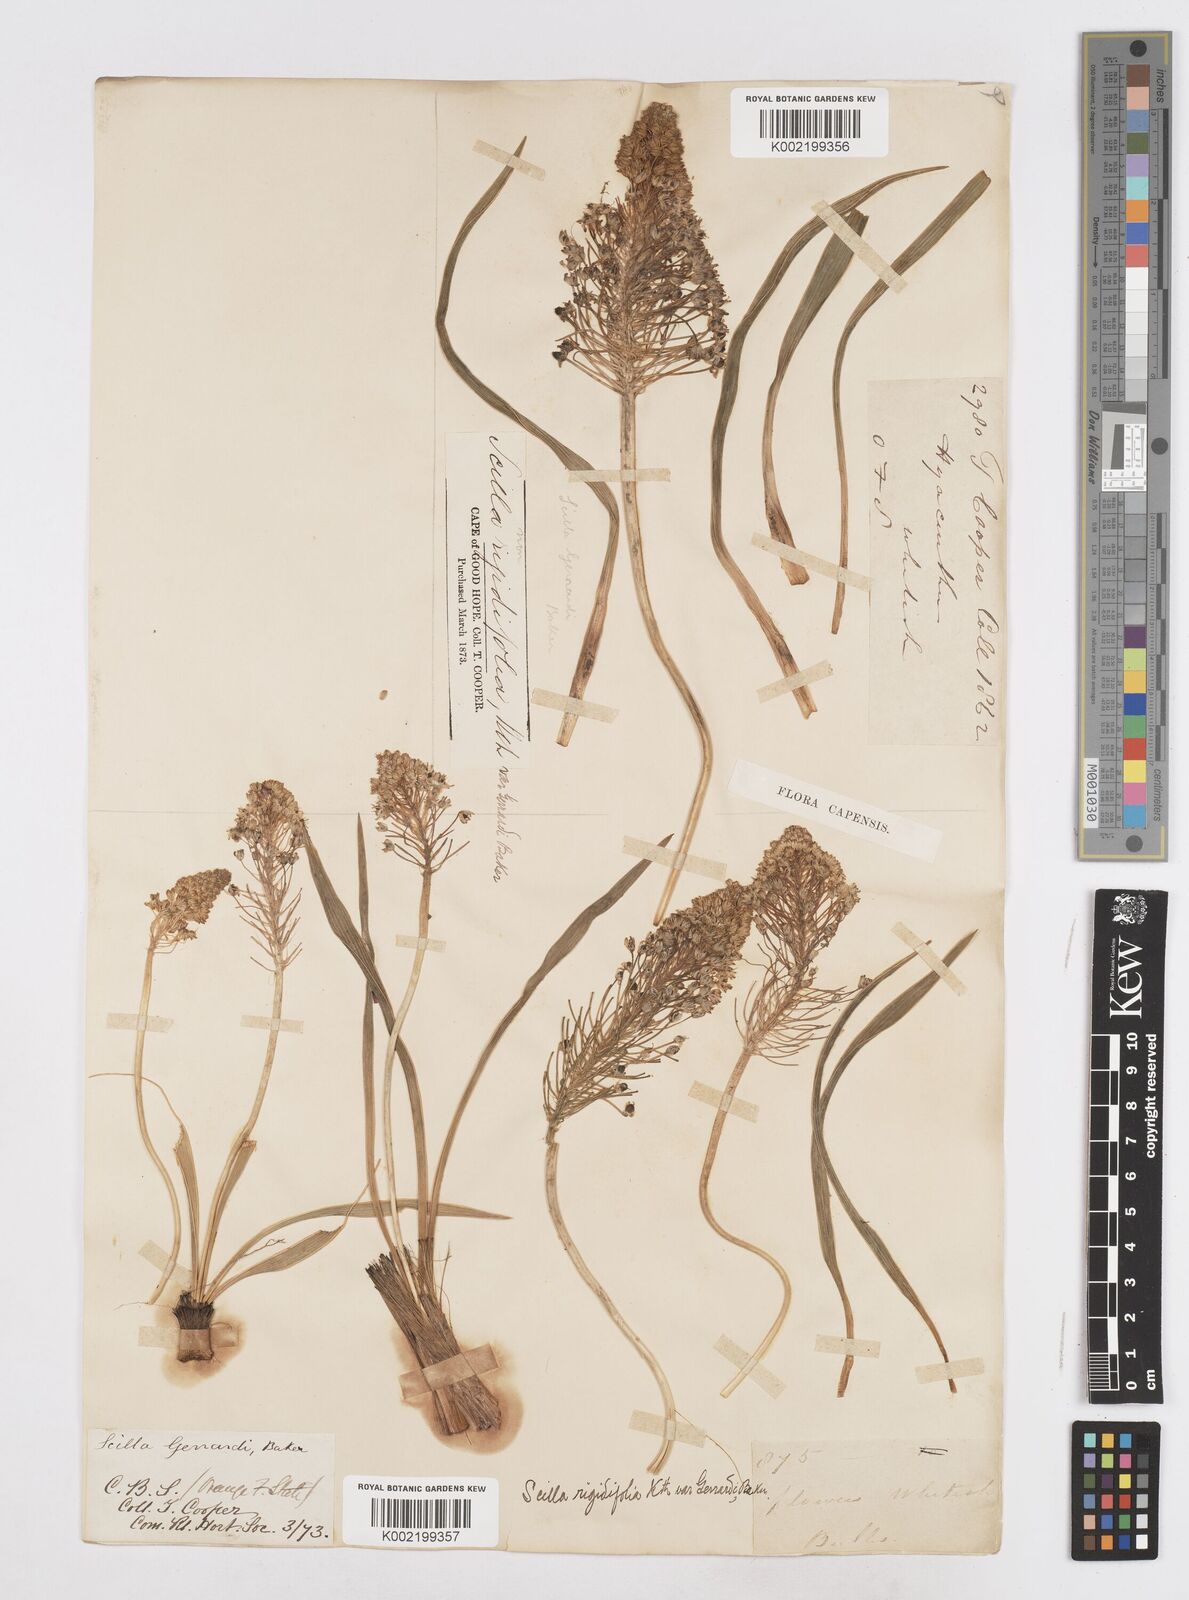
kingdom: Plantae
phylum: Tracheophyta
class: Liliopsida
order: Asparagales
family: Asparagaceae
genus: Schizocarphus
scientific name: Schizocarphus nervosus
